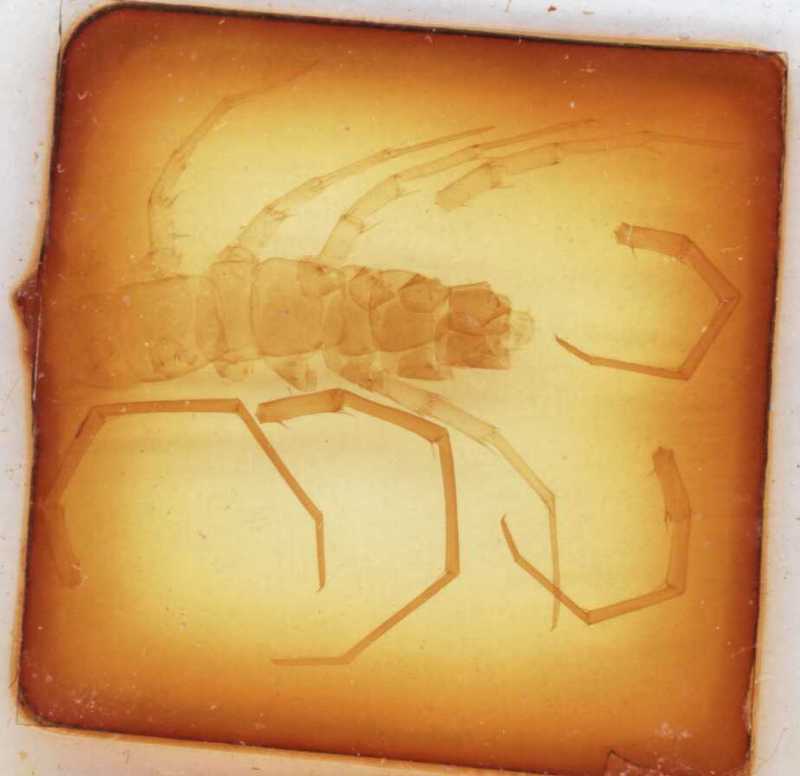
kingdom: Animalia
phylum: Arthropoda
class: Chilopoda
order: Lithobiomorpha
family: Lithobiidae
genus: Eupolybothrus
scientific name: Eupolybothrus tridentinus
